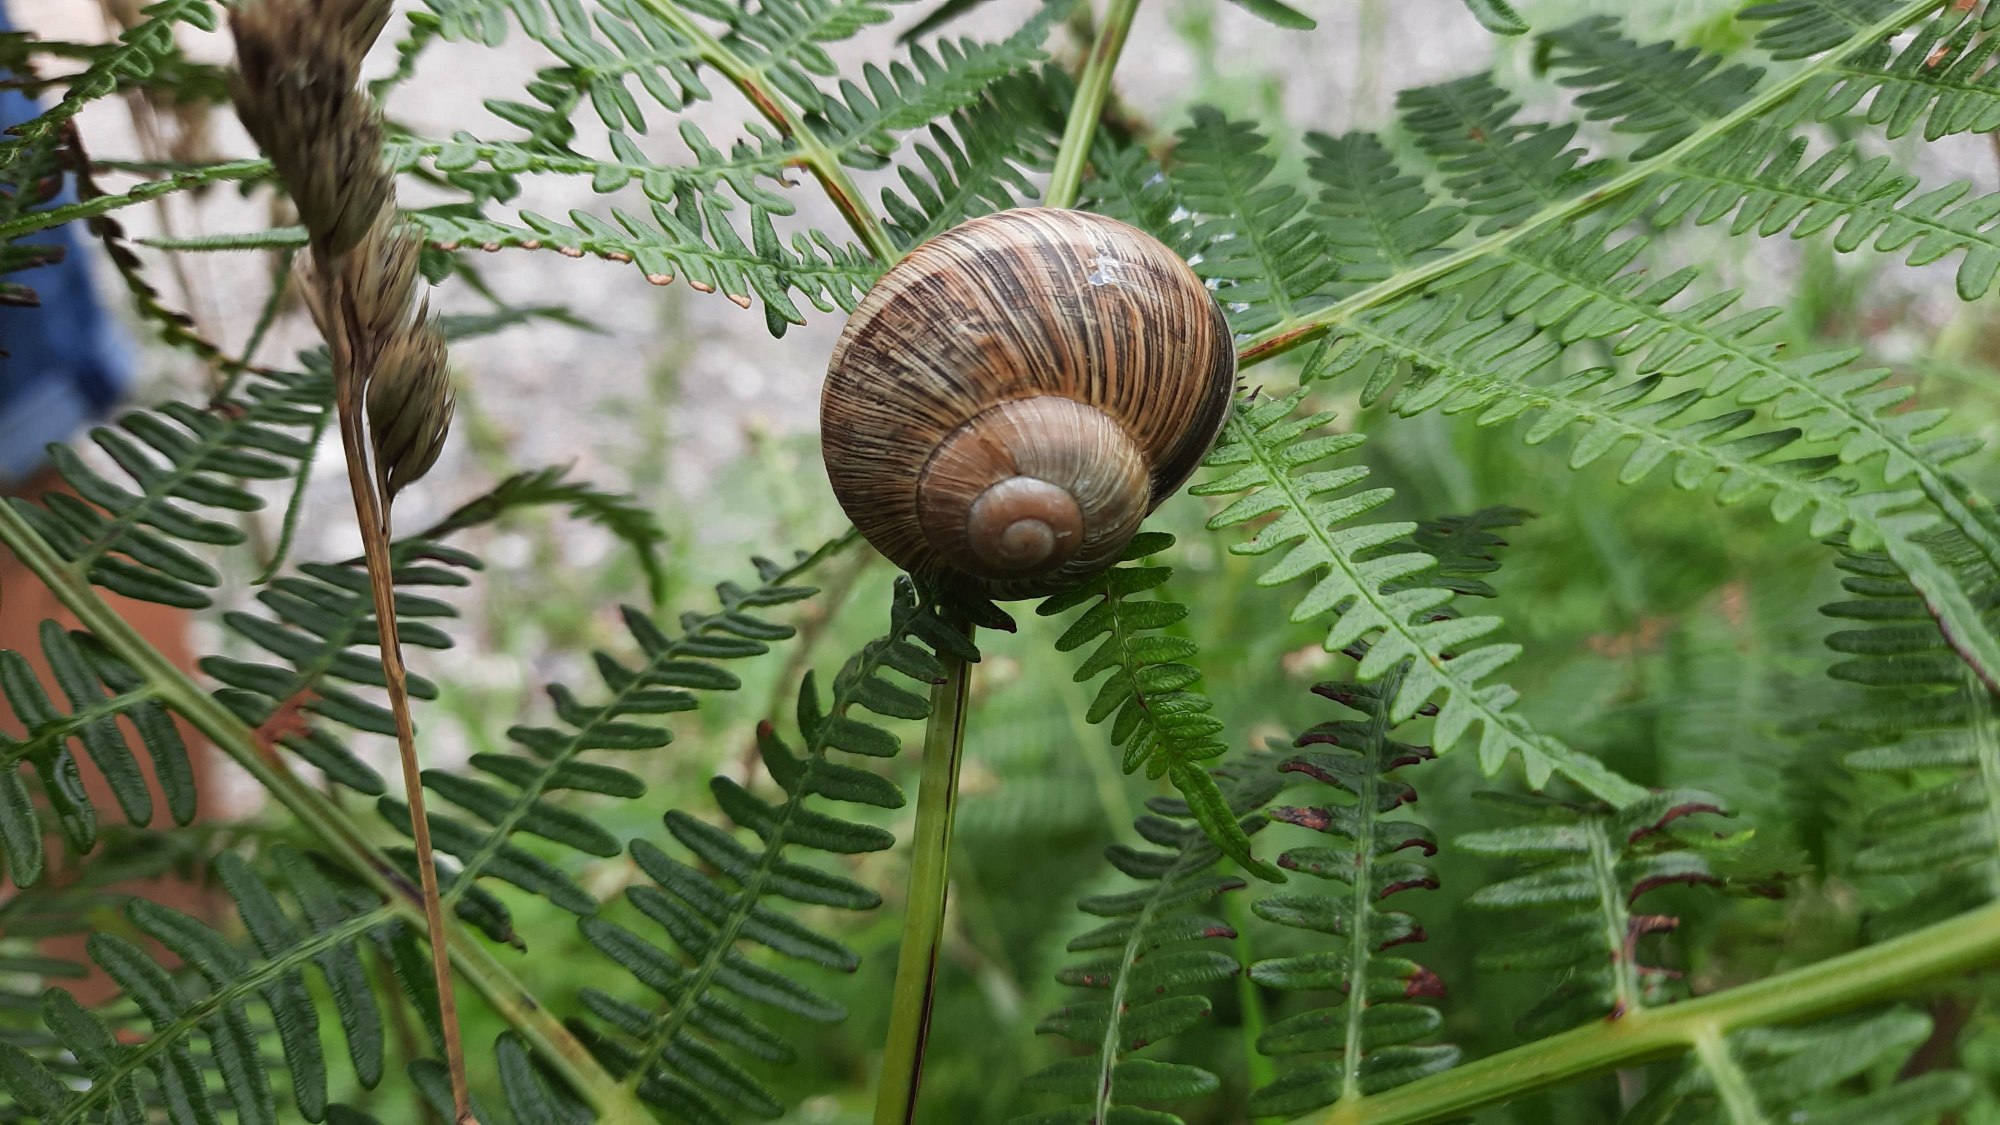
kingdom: Animalia
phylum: Mollusca
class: Gastropoda
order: Stylommatophora
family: Helicidae
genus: Helix
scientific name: Helix pomatia
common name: Vinbjergsnegl
